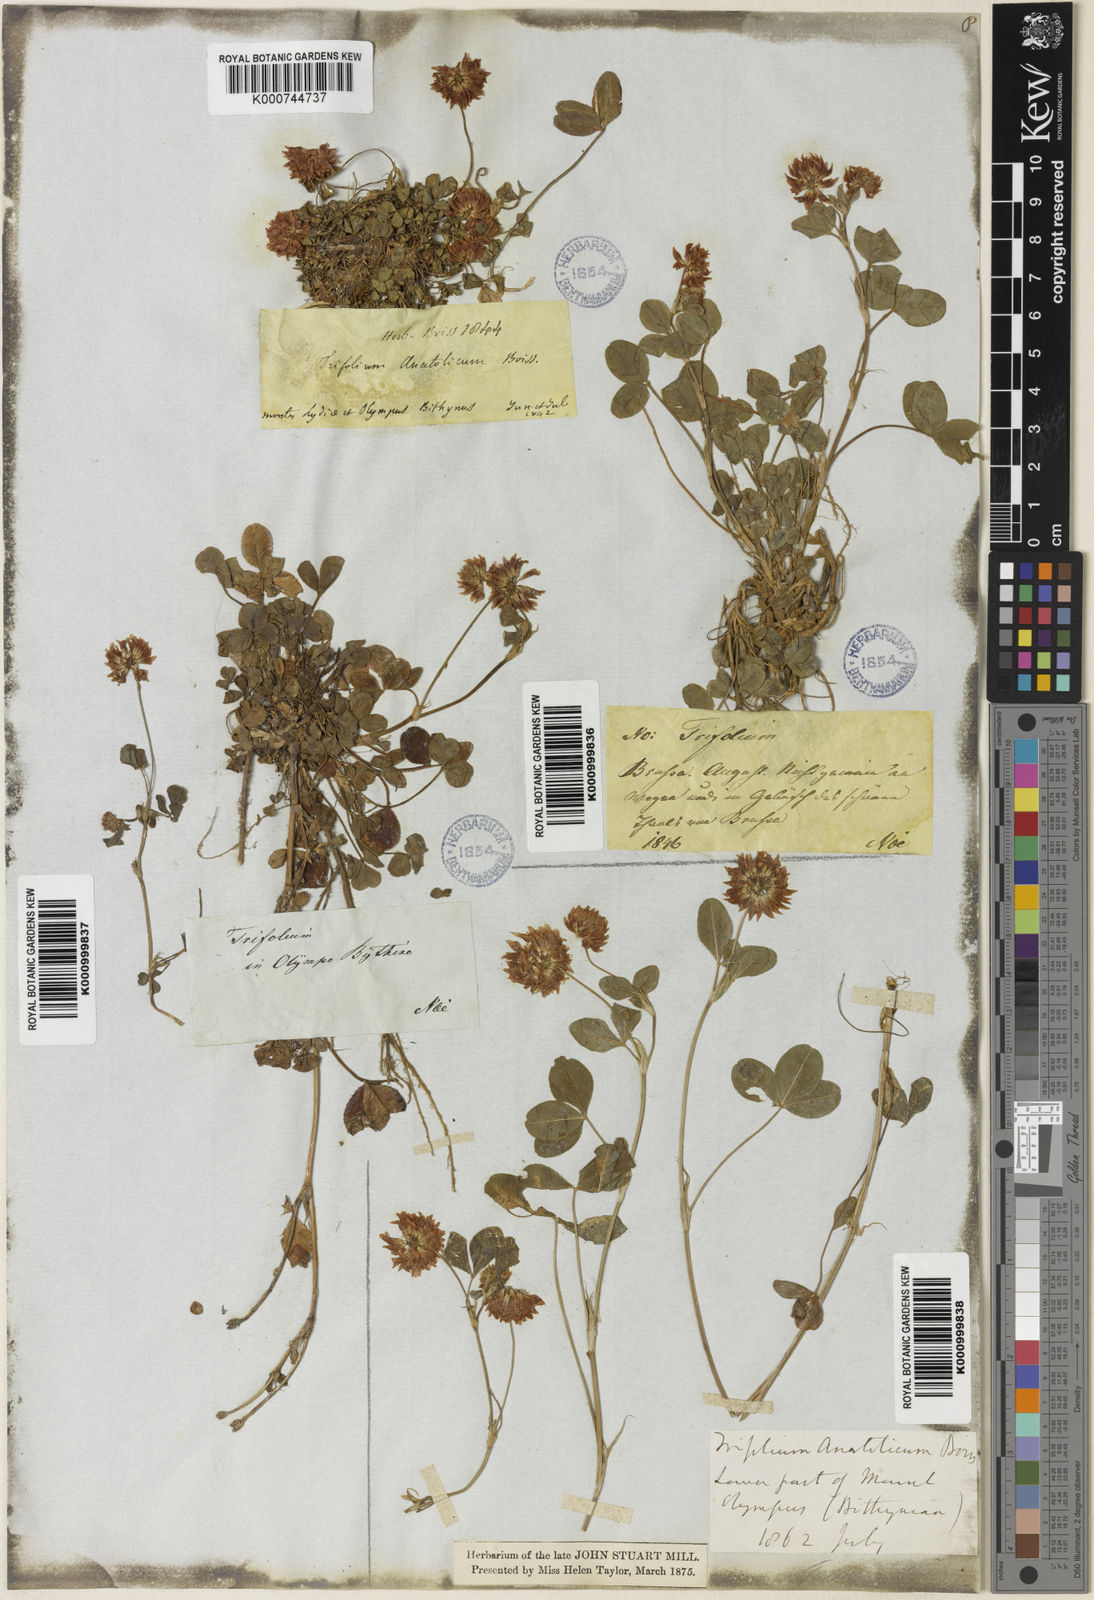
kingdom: Plantae
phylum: Tracheophyta
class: Magnoliopsida
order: Fabales
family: Fabaceae
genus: Trifolium
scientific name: Trifolium hybridum
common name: Alsike clover
